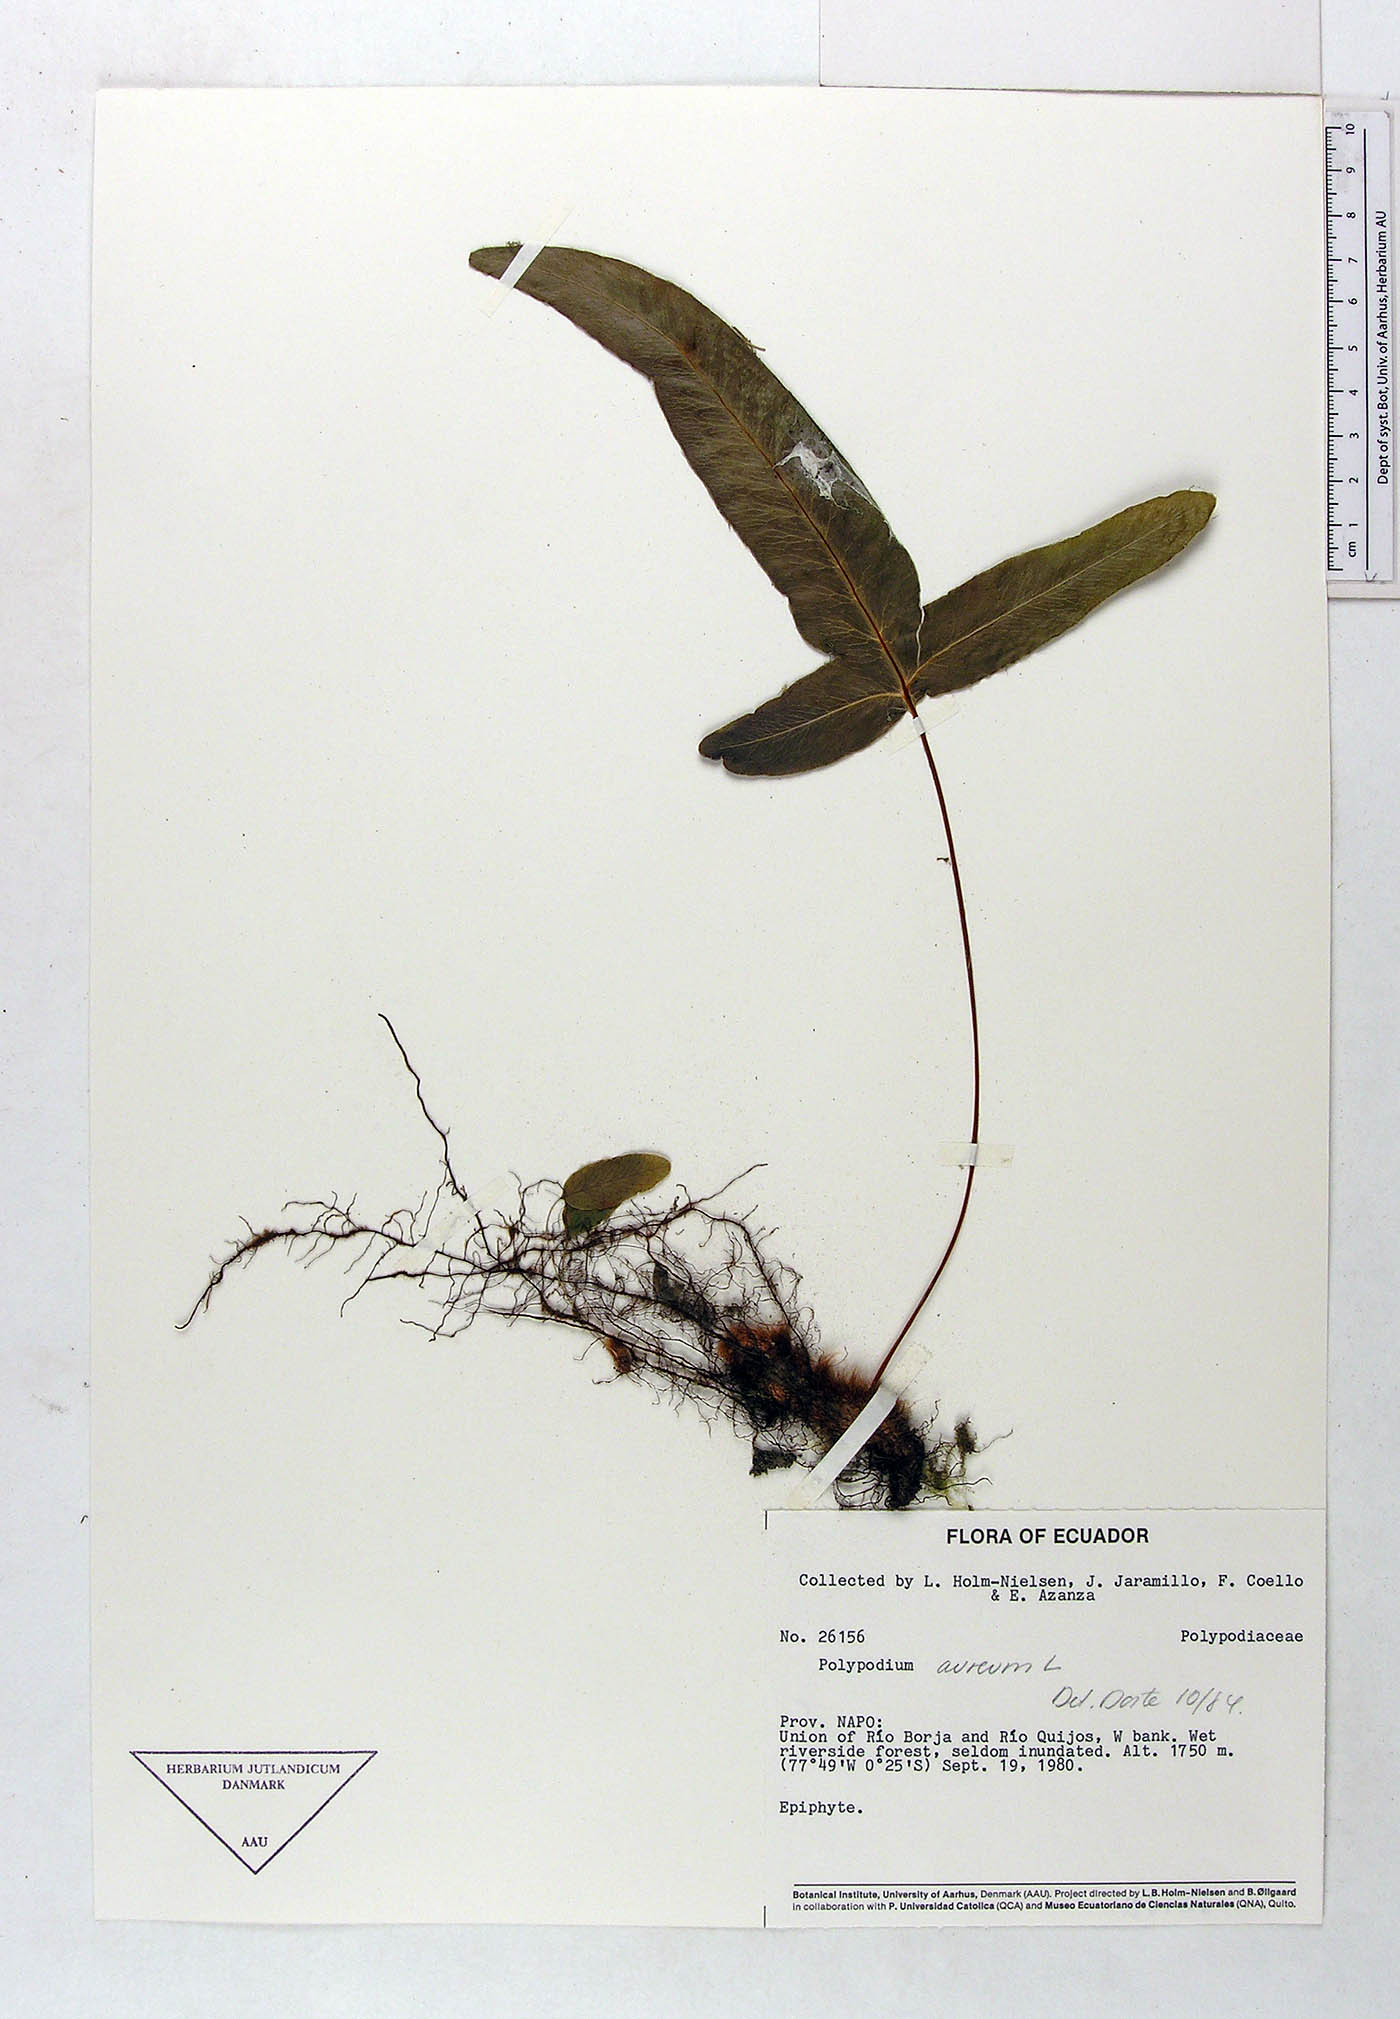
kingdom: Plantae
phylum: Tracheophyta
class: Polypodiopsida
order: Polypodiales
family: Polypodiaceae
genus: Phlebodium
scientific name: Phlebodium aureum
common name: Gold-foot fern
